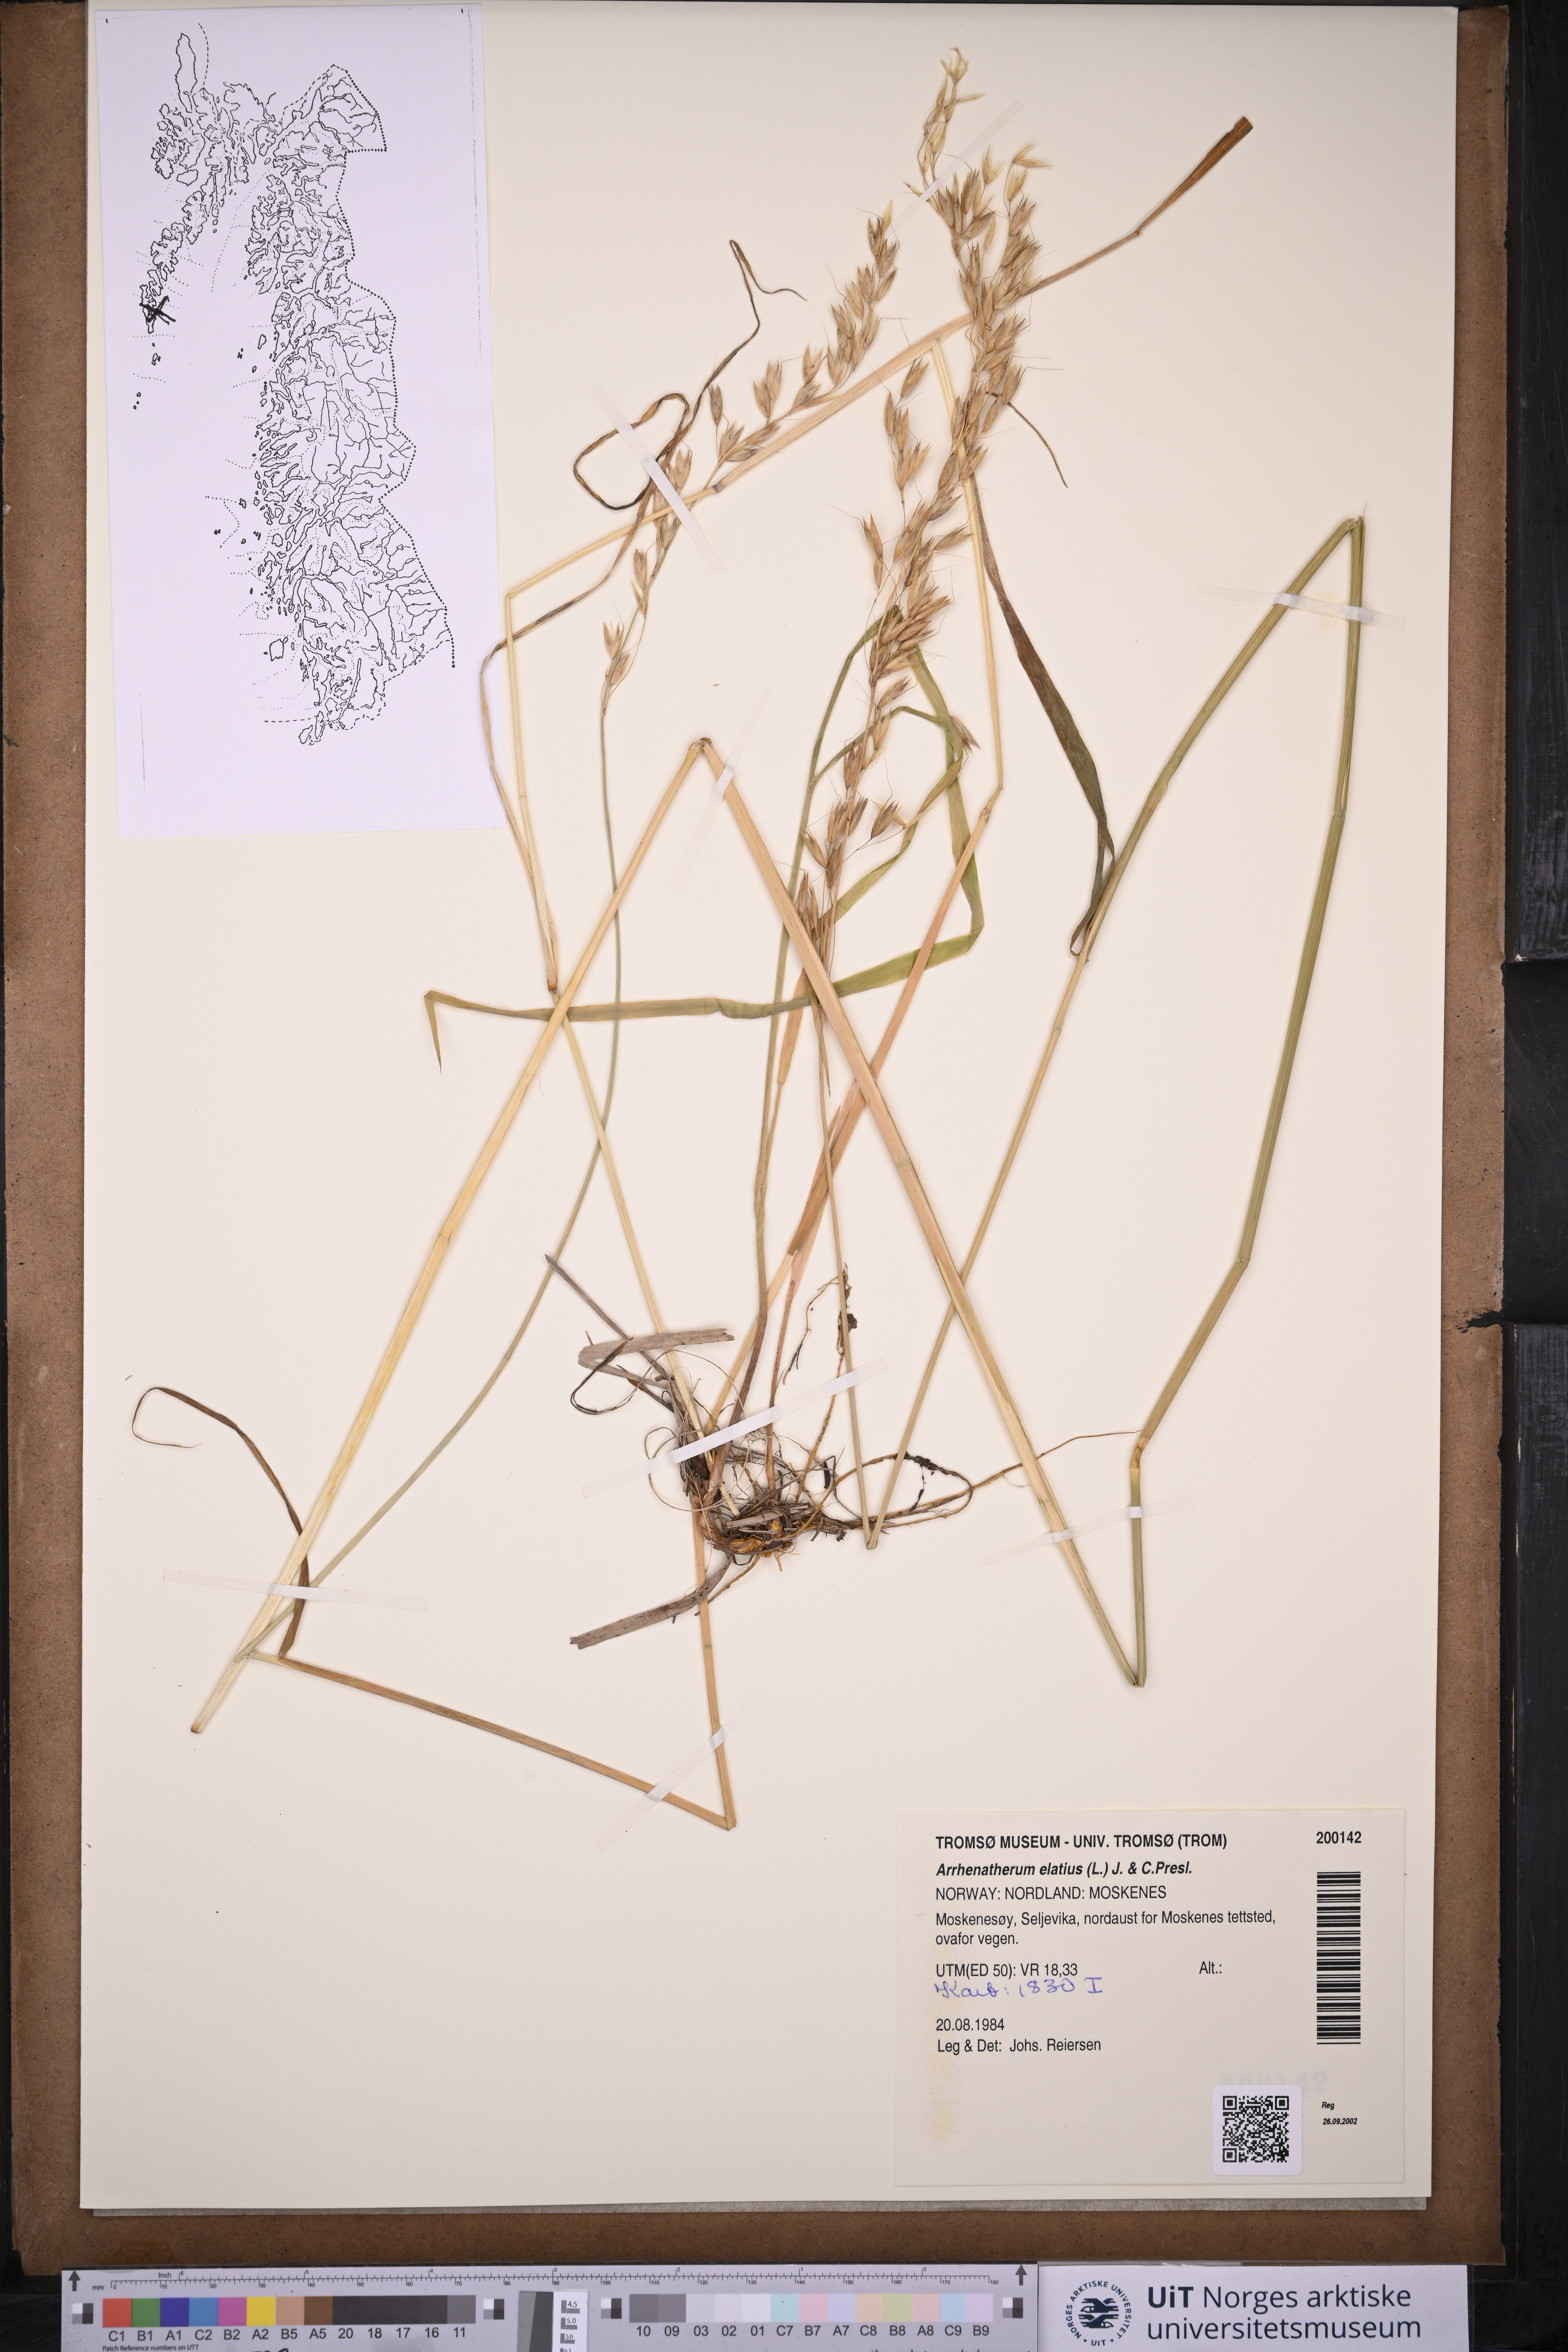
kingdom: Plantae
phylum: Tracheophyta
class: Liliopsida
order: Poales
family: Poaceae
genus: Arrhenatherum
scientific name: Arrhenatherum elatius
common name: Tall oatgrass
